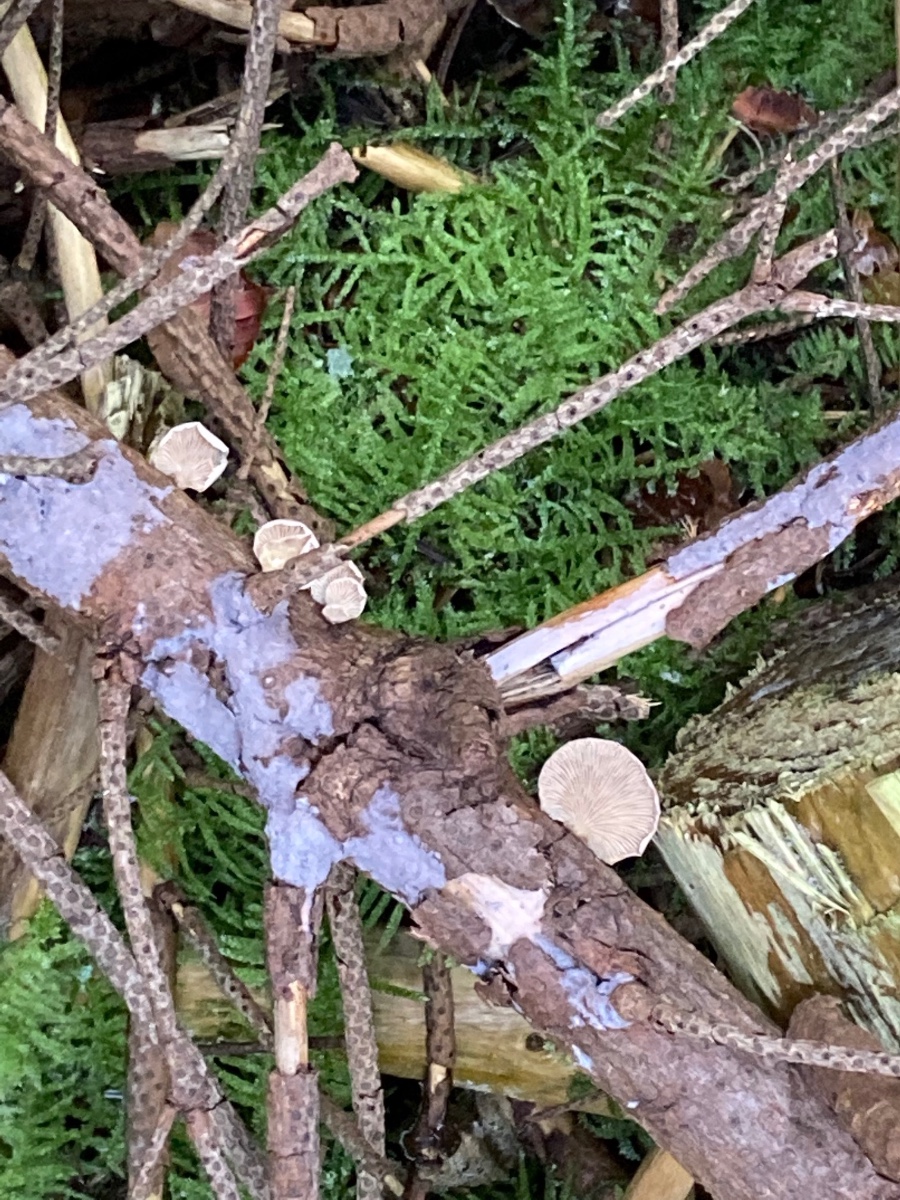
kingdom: Fungi
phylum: Basidiomycota
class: Agaricomycetes
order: Agaricales
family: Mycenaceae
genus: Panellus
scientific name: Panellus mitis
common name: mild epaulethat
